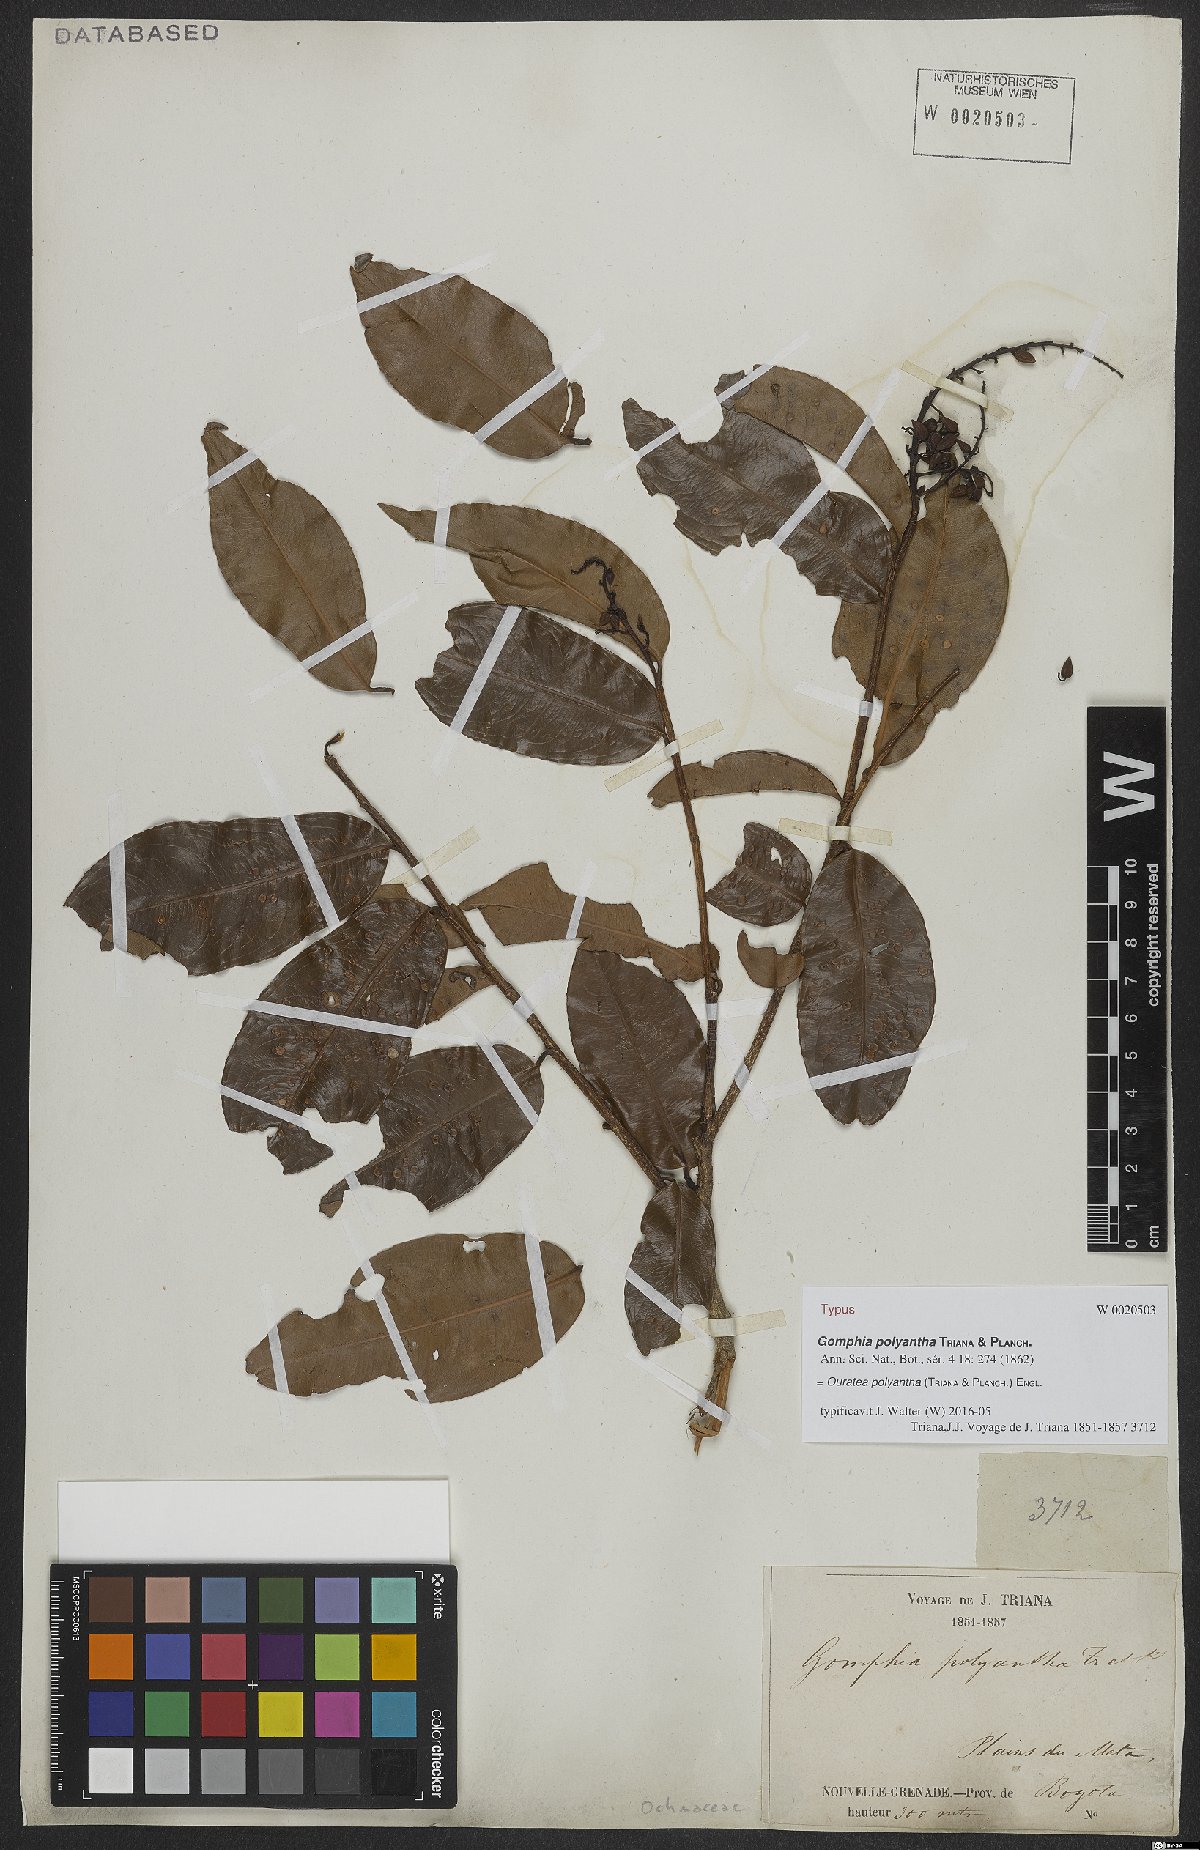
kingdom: Plantae
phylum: Tracheophyta
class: Magnoliopsida
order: Malpighiales
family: Ochnaceae
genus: Ouratea
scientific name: Ouratea polyantha
